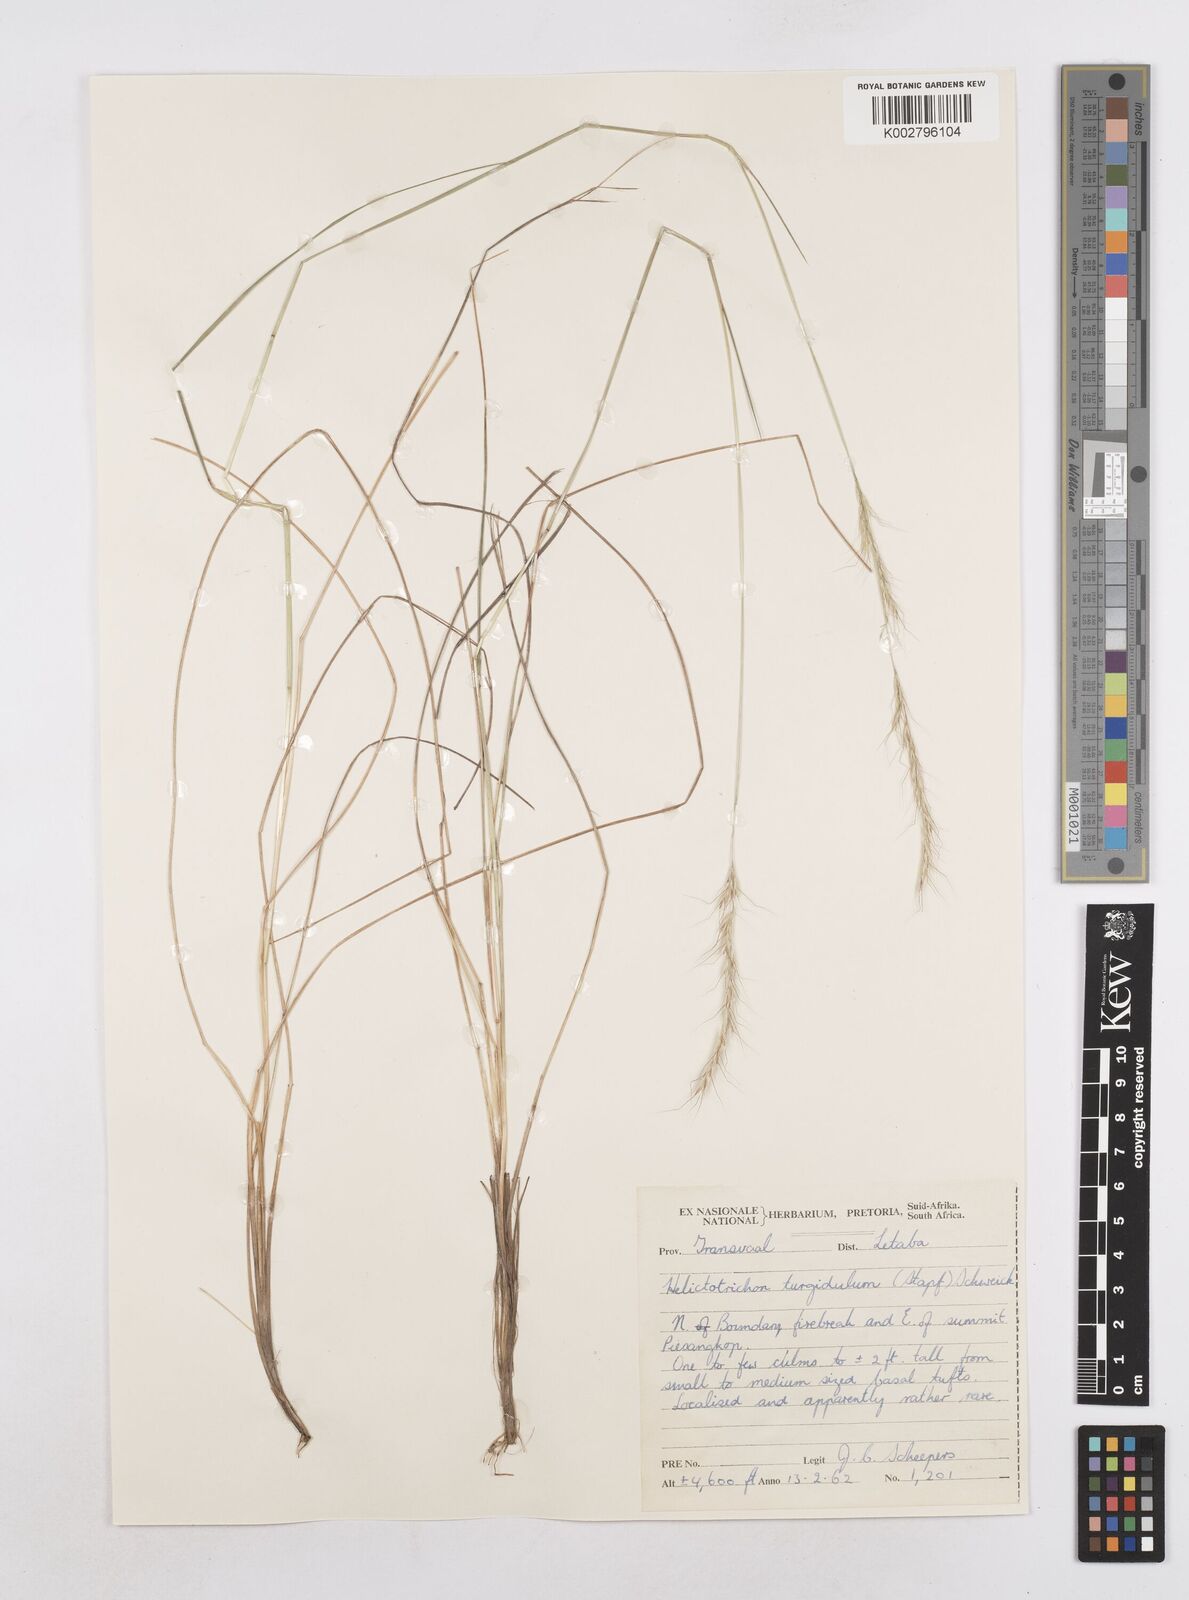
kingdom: Plantae
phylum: Tracheophyta
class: Liliopsida
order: Poales
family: Poaceae
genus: Trisetopsis
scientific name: Trisetopsis imberbis
